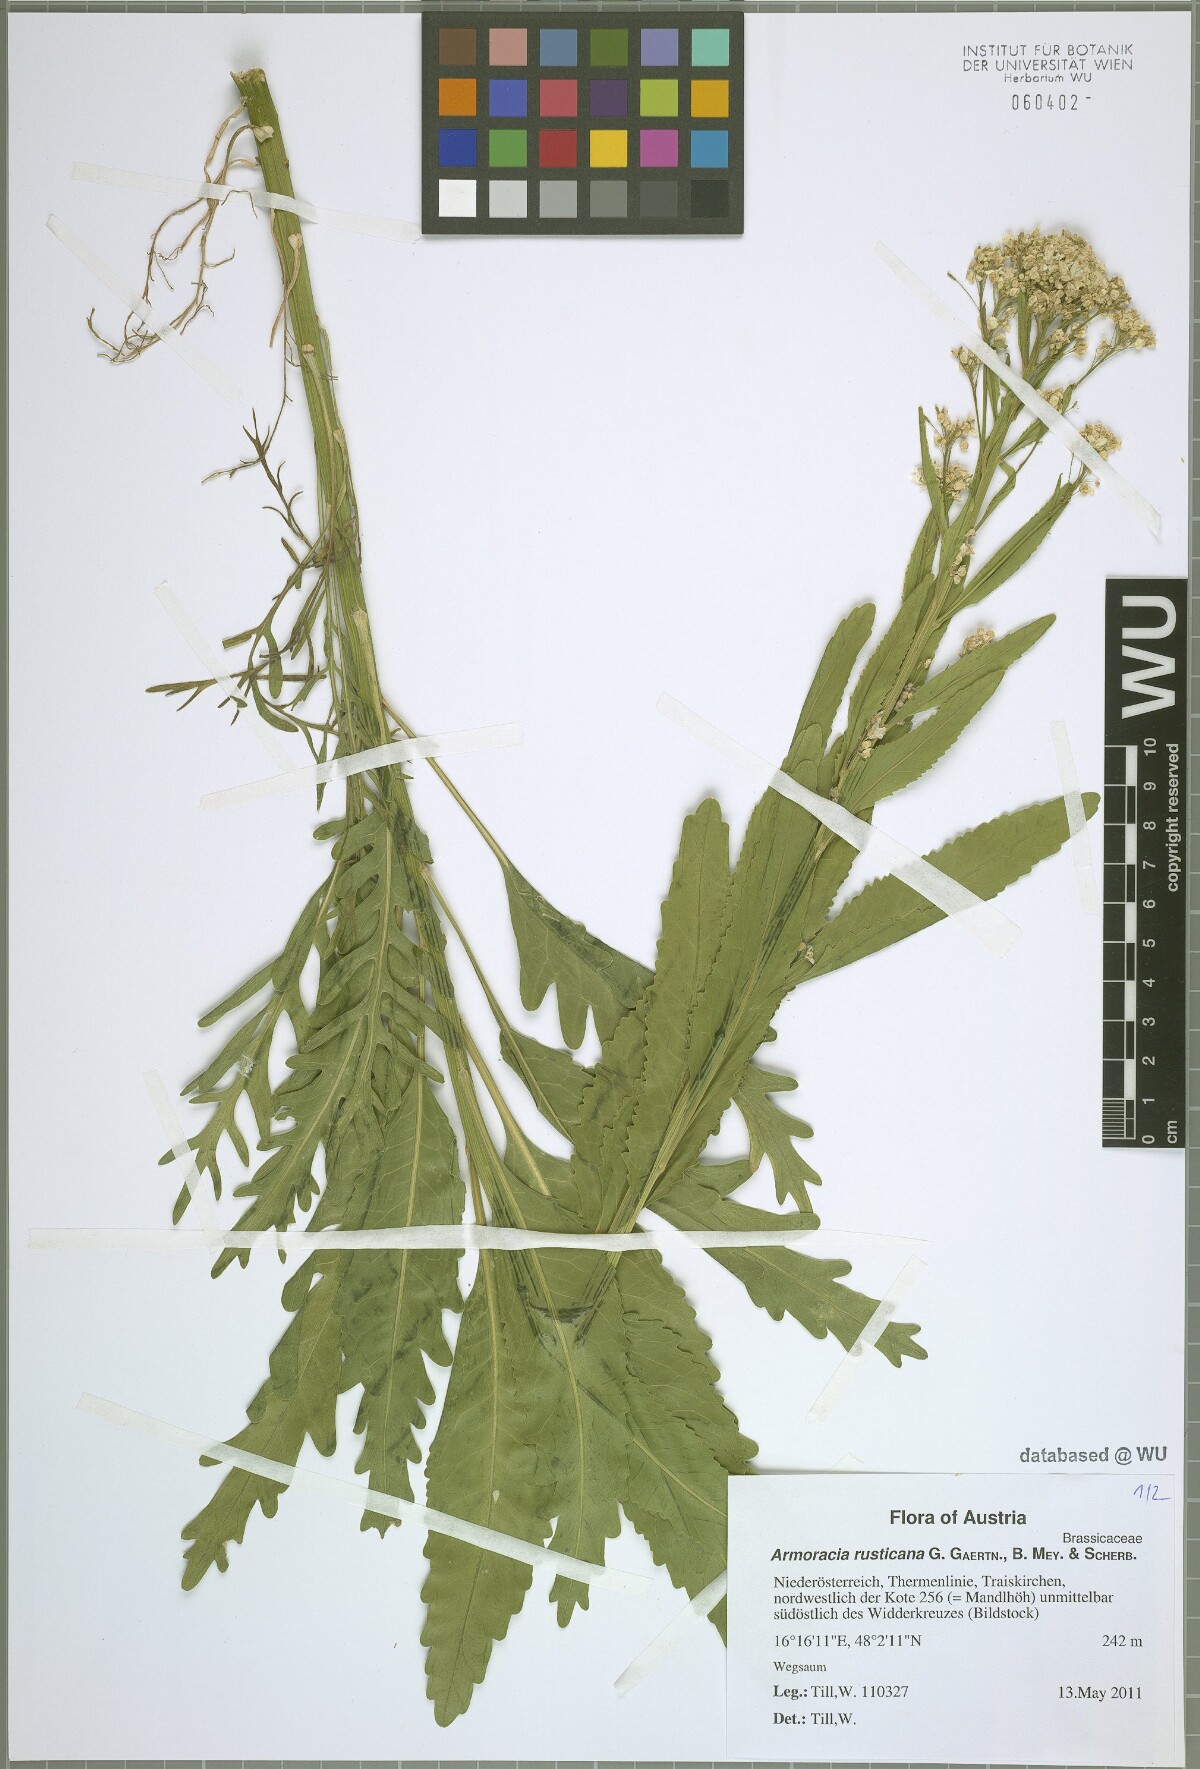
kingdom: Plantae
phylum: Tracheophyta
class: Magnoliopsida
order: Brassicales
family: Brassicaceae
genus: Armoracia
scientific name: Armoracia rusticana
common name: Horseradish
